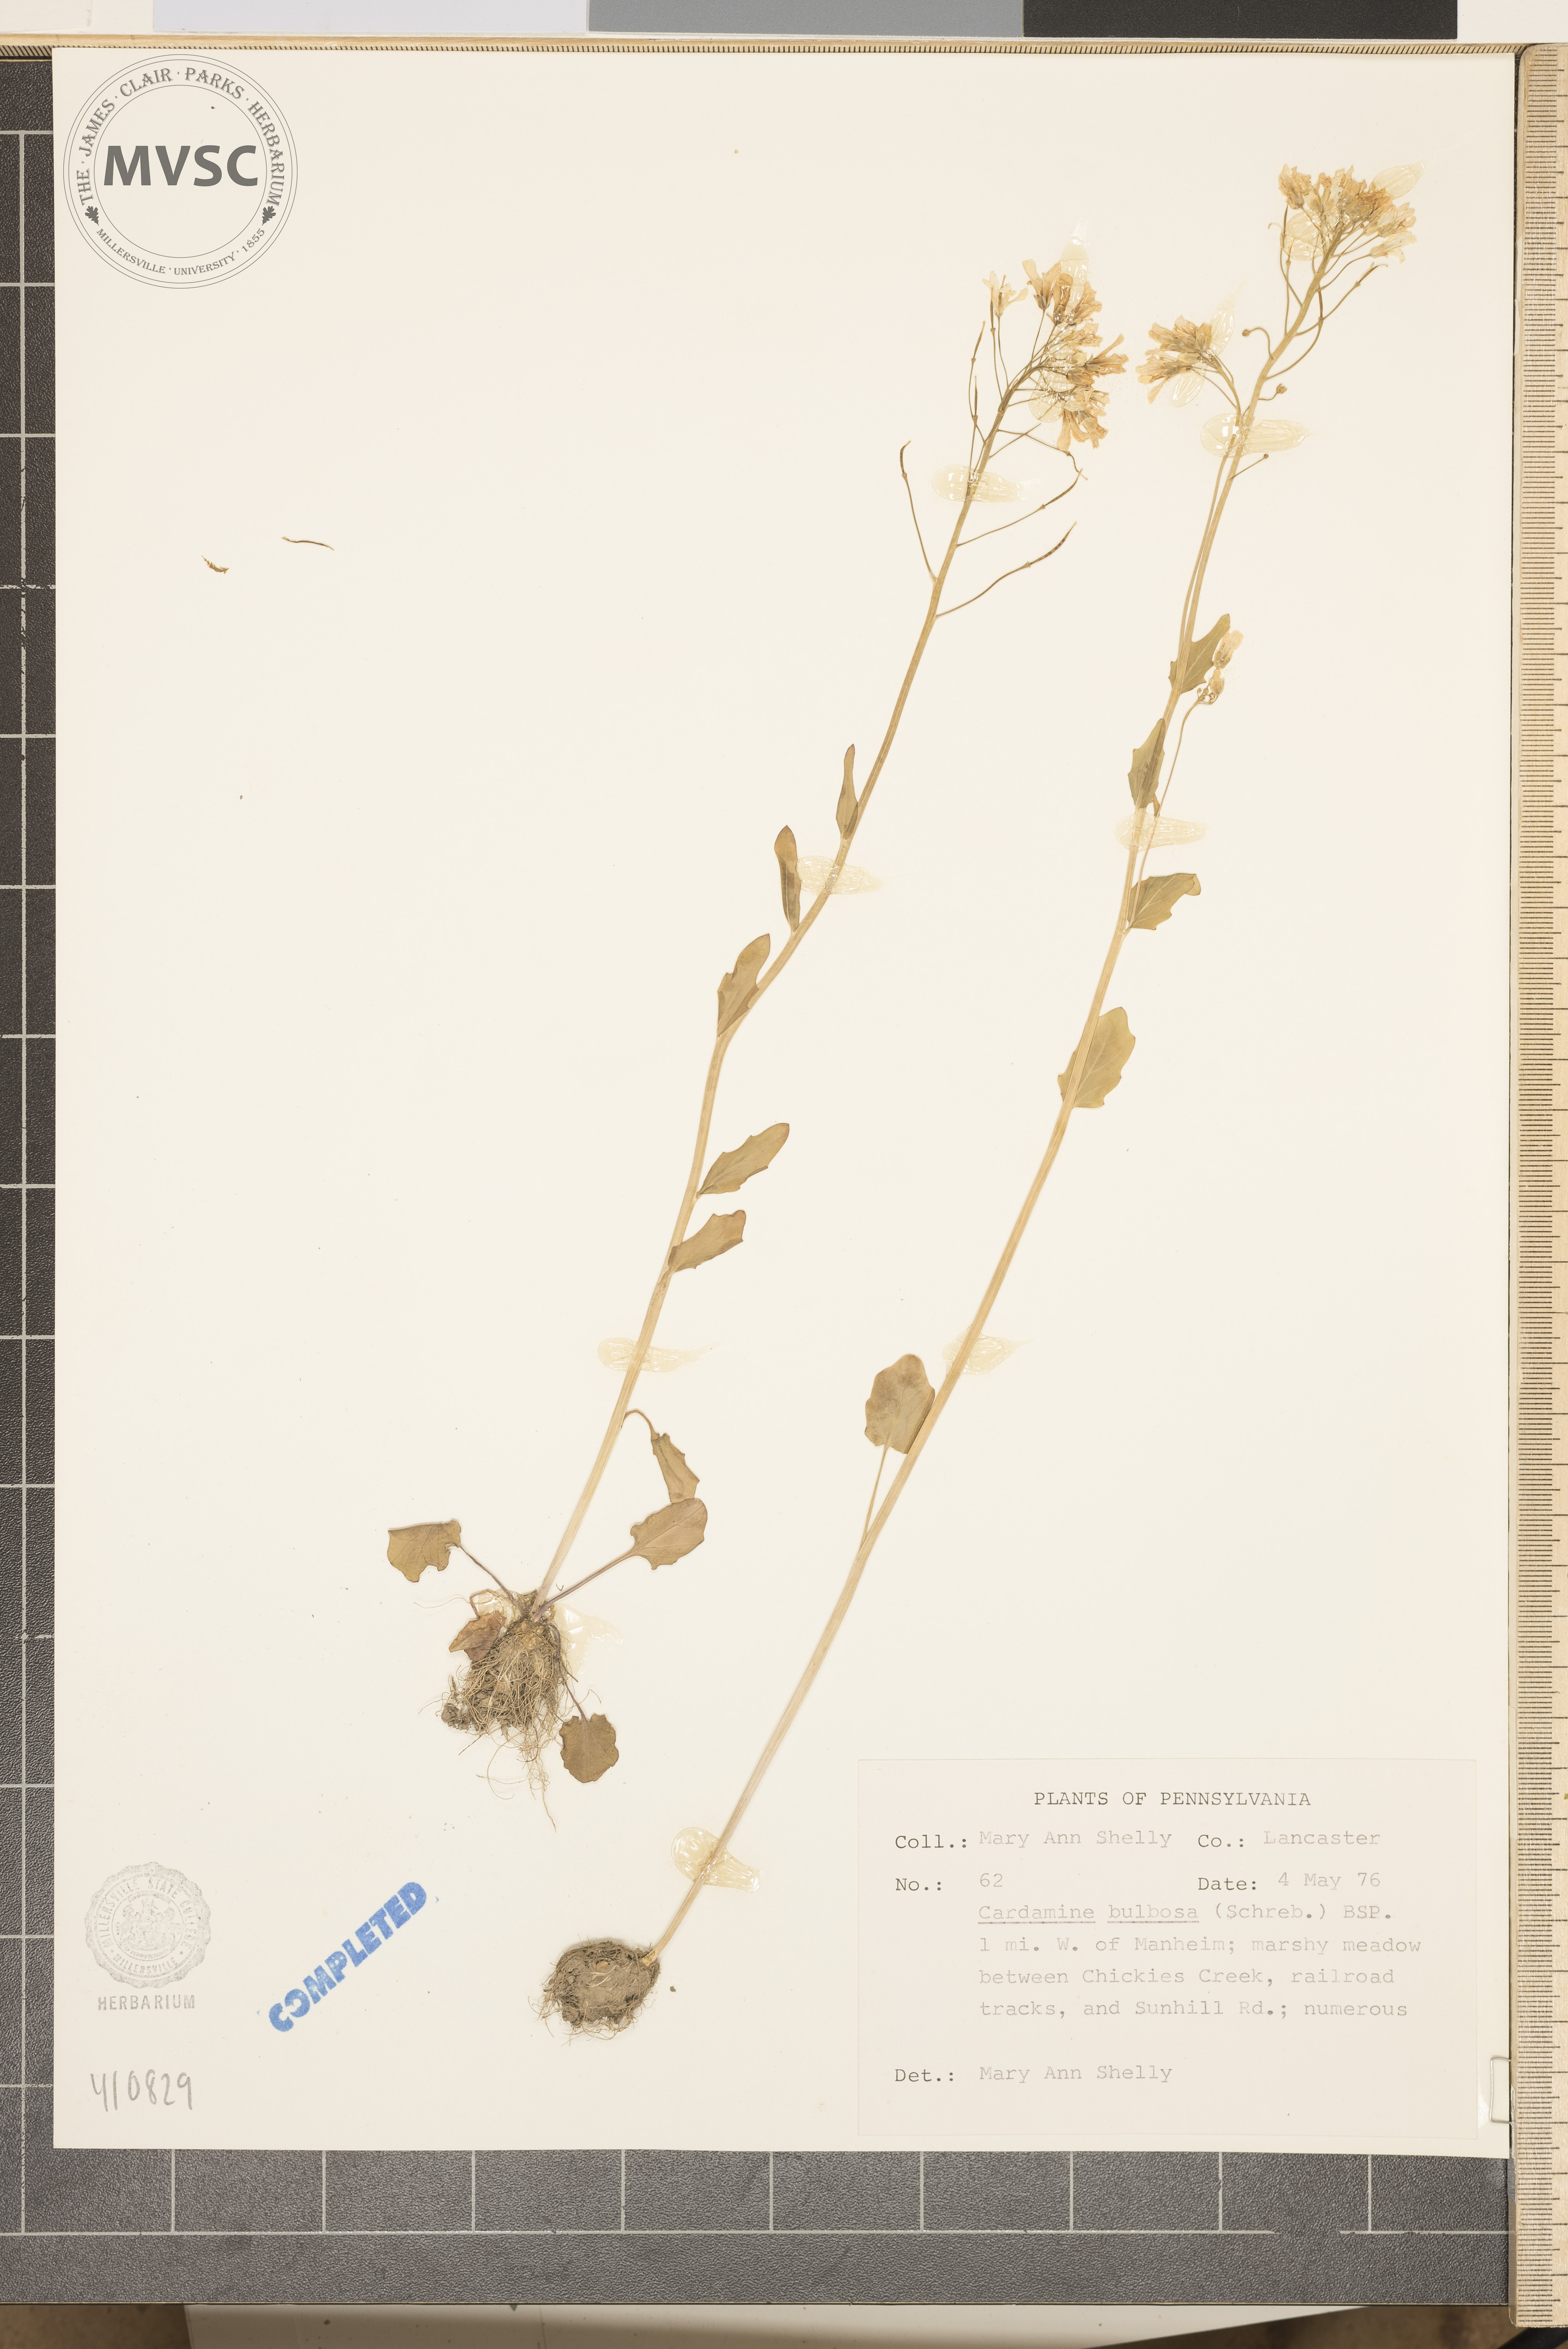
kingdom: Plantae
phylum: Tracheophyta
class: Magnoliopsida
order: Brassicales
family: Brassicaceae
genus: Cardamine
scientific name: Cardamine bulbosa
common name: Spring cress
